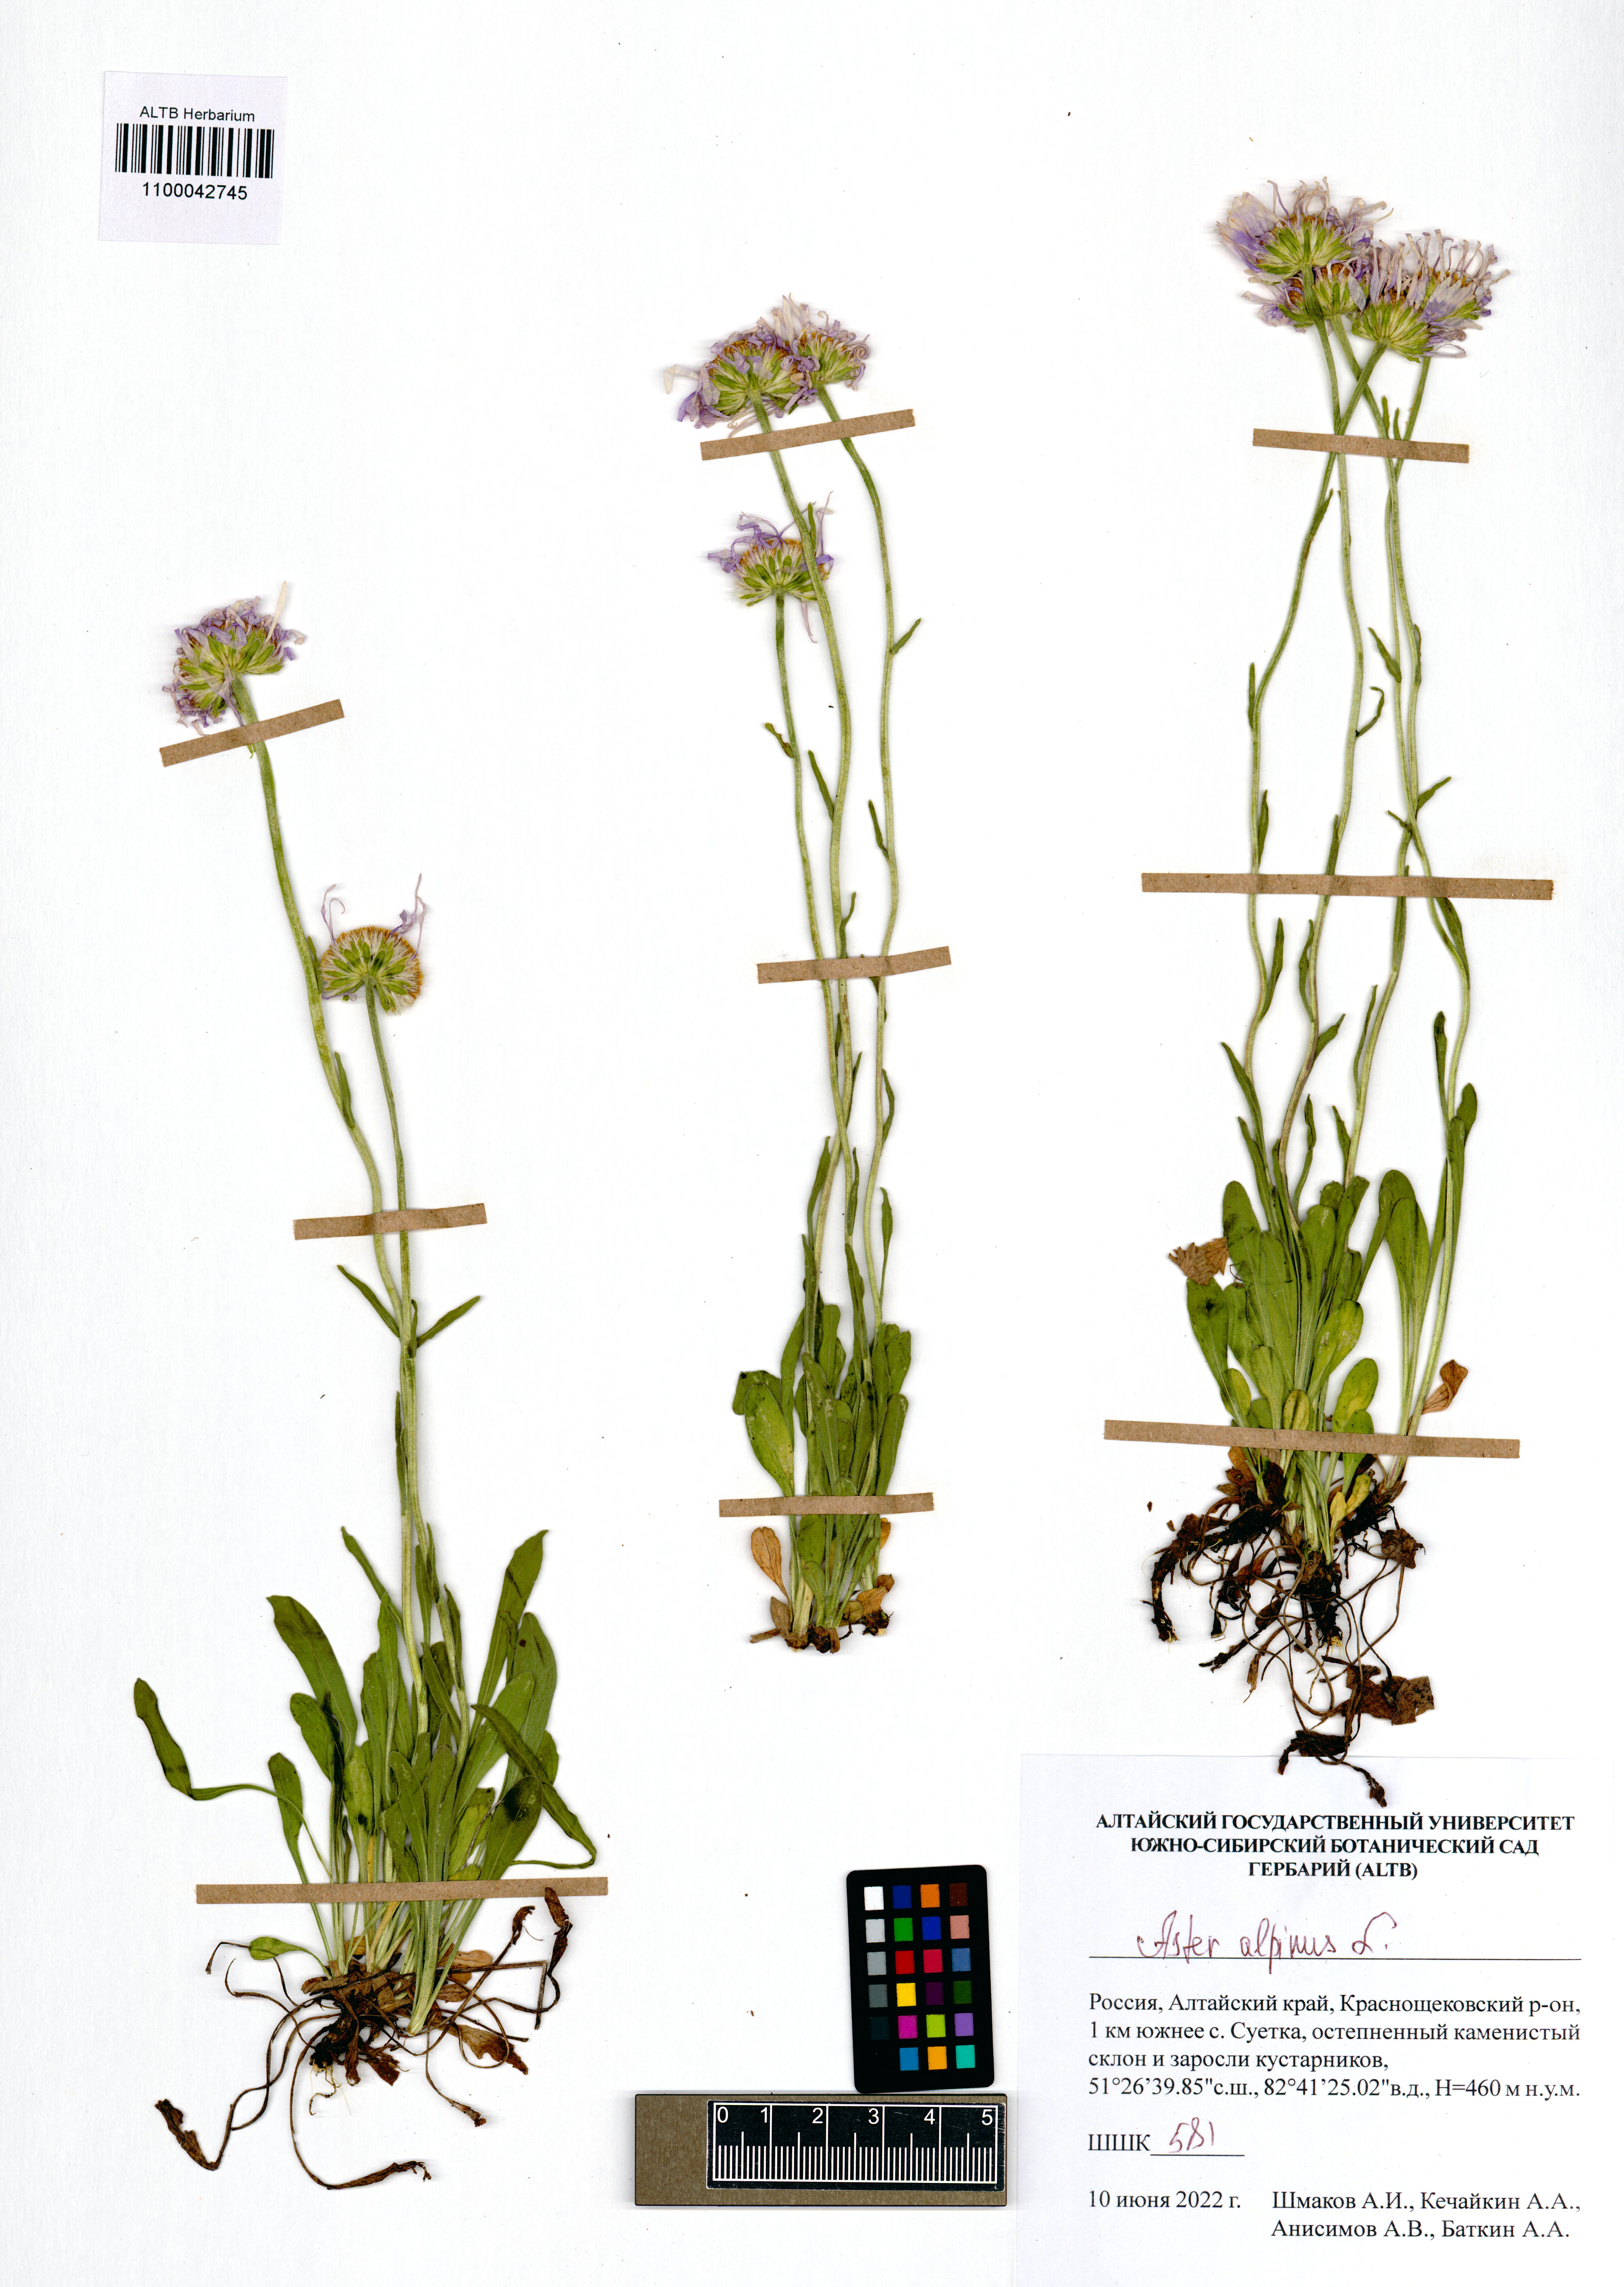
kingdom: Plantae
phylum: Tracheophyta
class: Magnoliopsida
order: Asterales
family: Asteraceae
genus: Aster
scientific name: Aster alpinus
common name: Alpine aster
